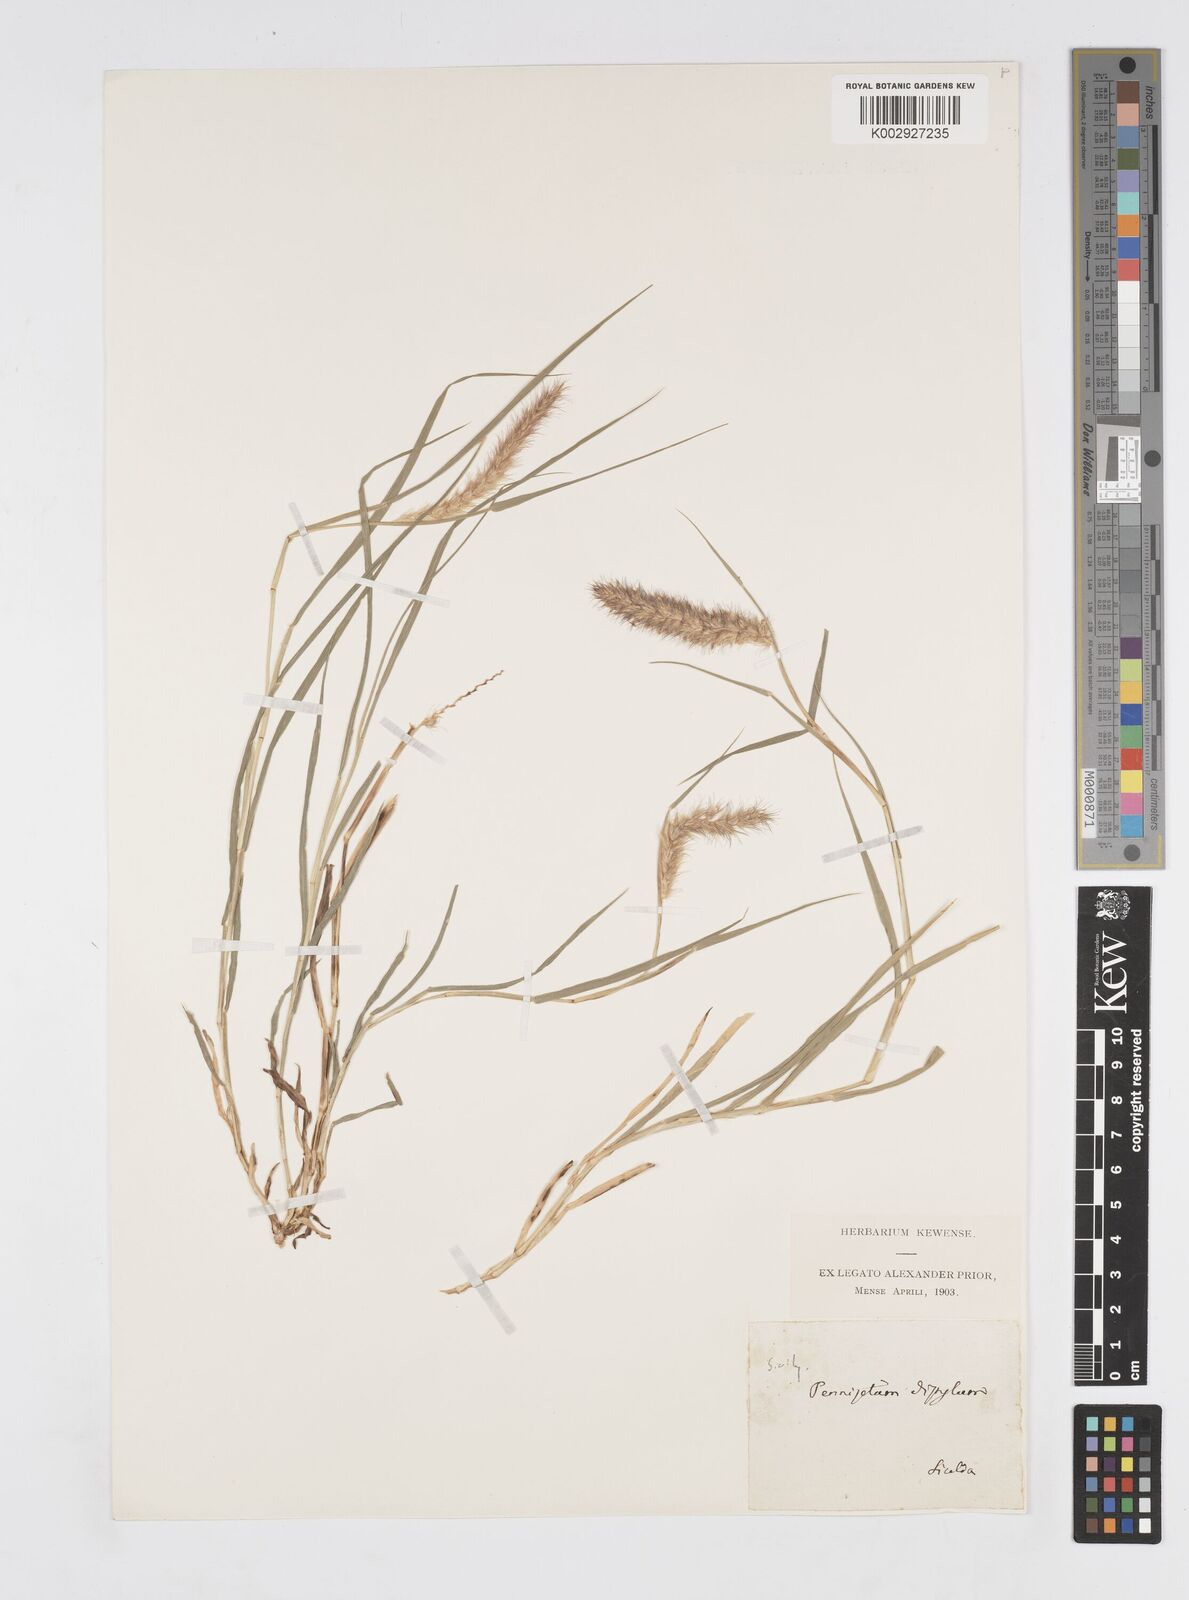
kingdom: Plantae
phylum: Tracheophyta
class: Liliopsida
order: Poales
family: Poaceae
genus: Cenchrus
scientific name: Cenchrus ciliaris
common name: Buffelgrass
